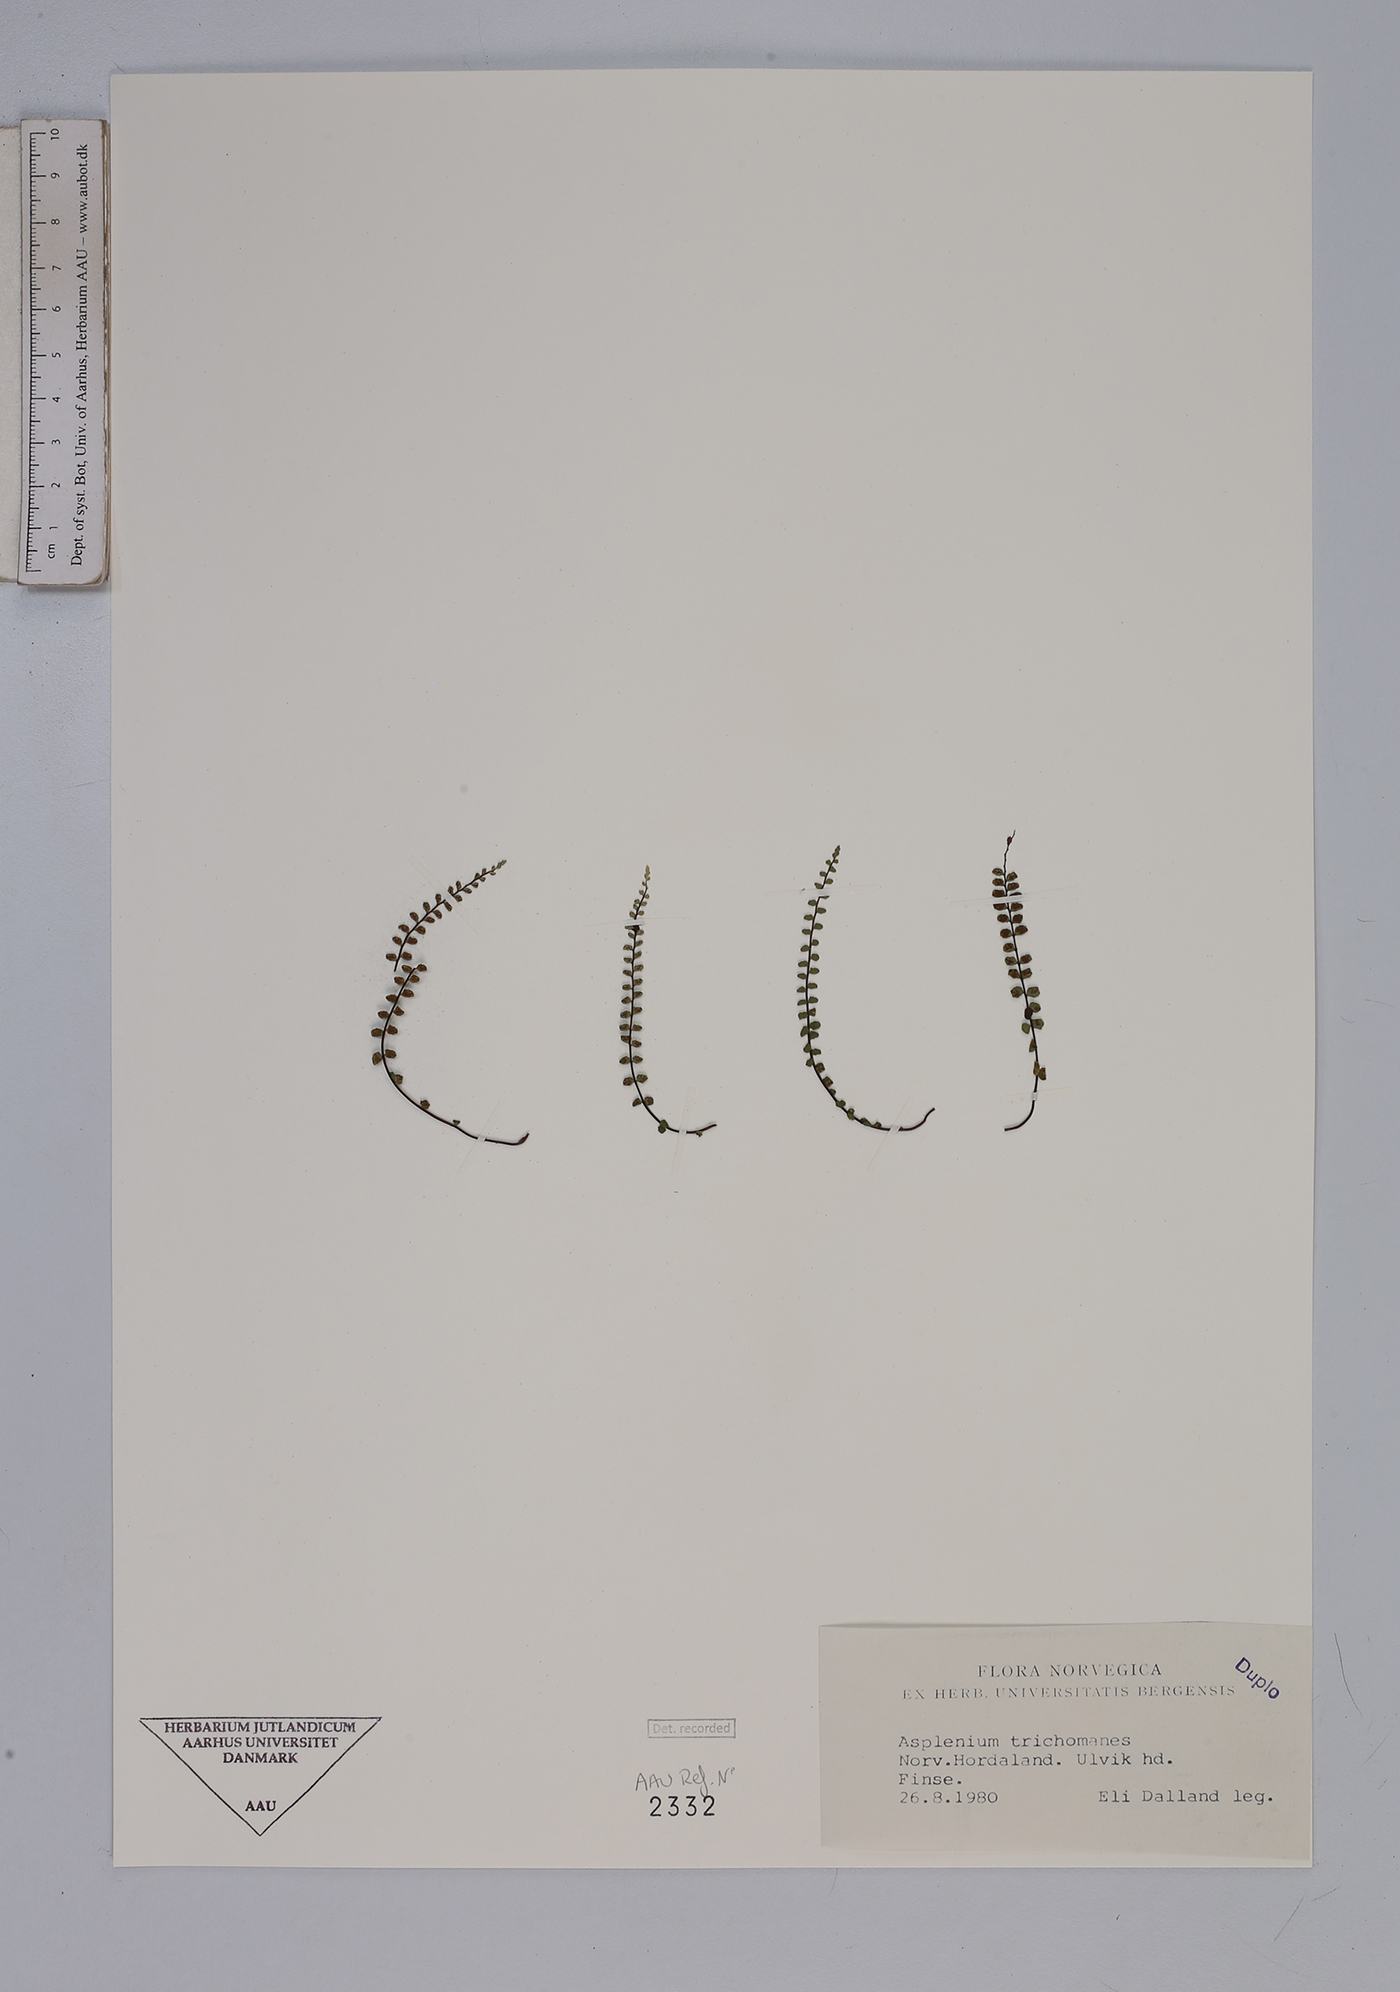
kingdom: Plantae
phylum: Tracheophyta
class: Polypodiopsida
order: Polypodiales
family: Aspleniaceae
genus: Asplenium
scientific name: Asplenium trichomanes
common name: Maidenhair spleenwort
